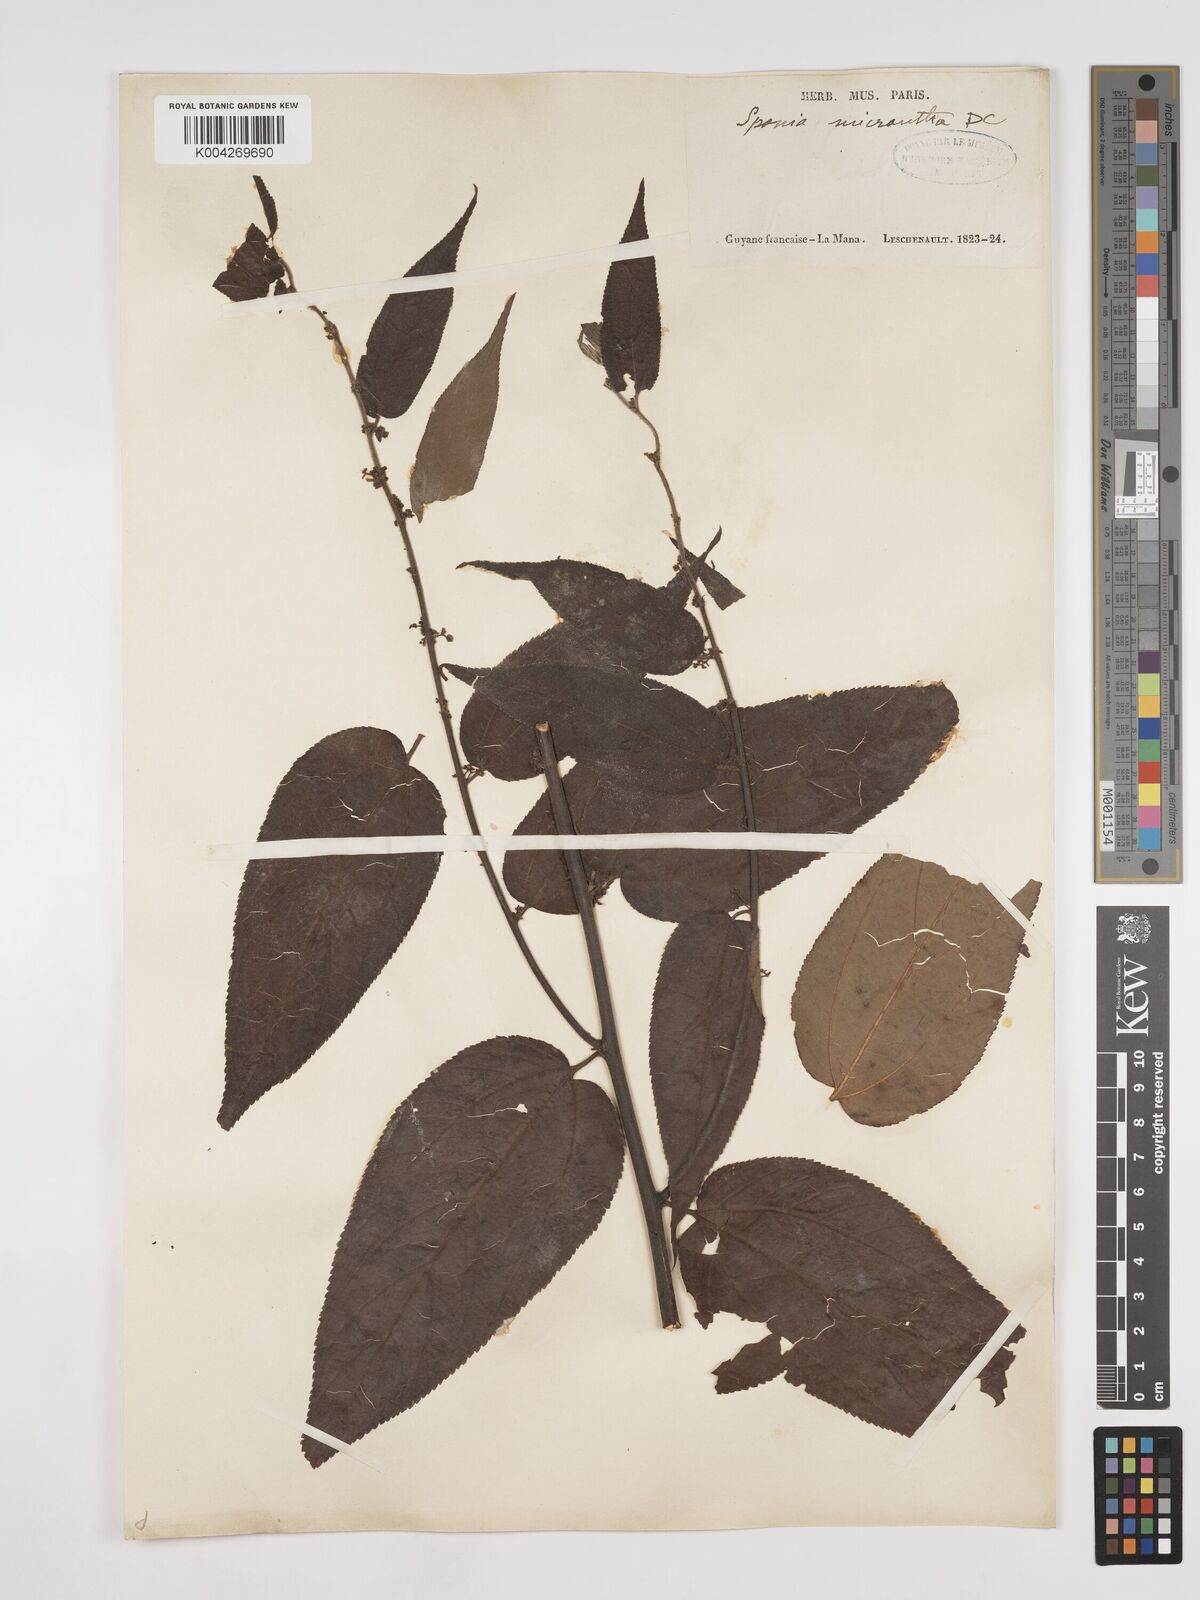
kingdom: Plantae
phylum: Tracheophyta
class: Magnoliopsida
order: Rosales
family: Cannabaceae
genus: Trema
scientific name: Trema micranthum
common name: Jamaican nettletree
